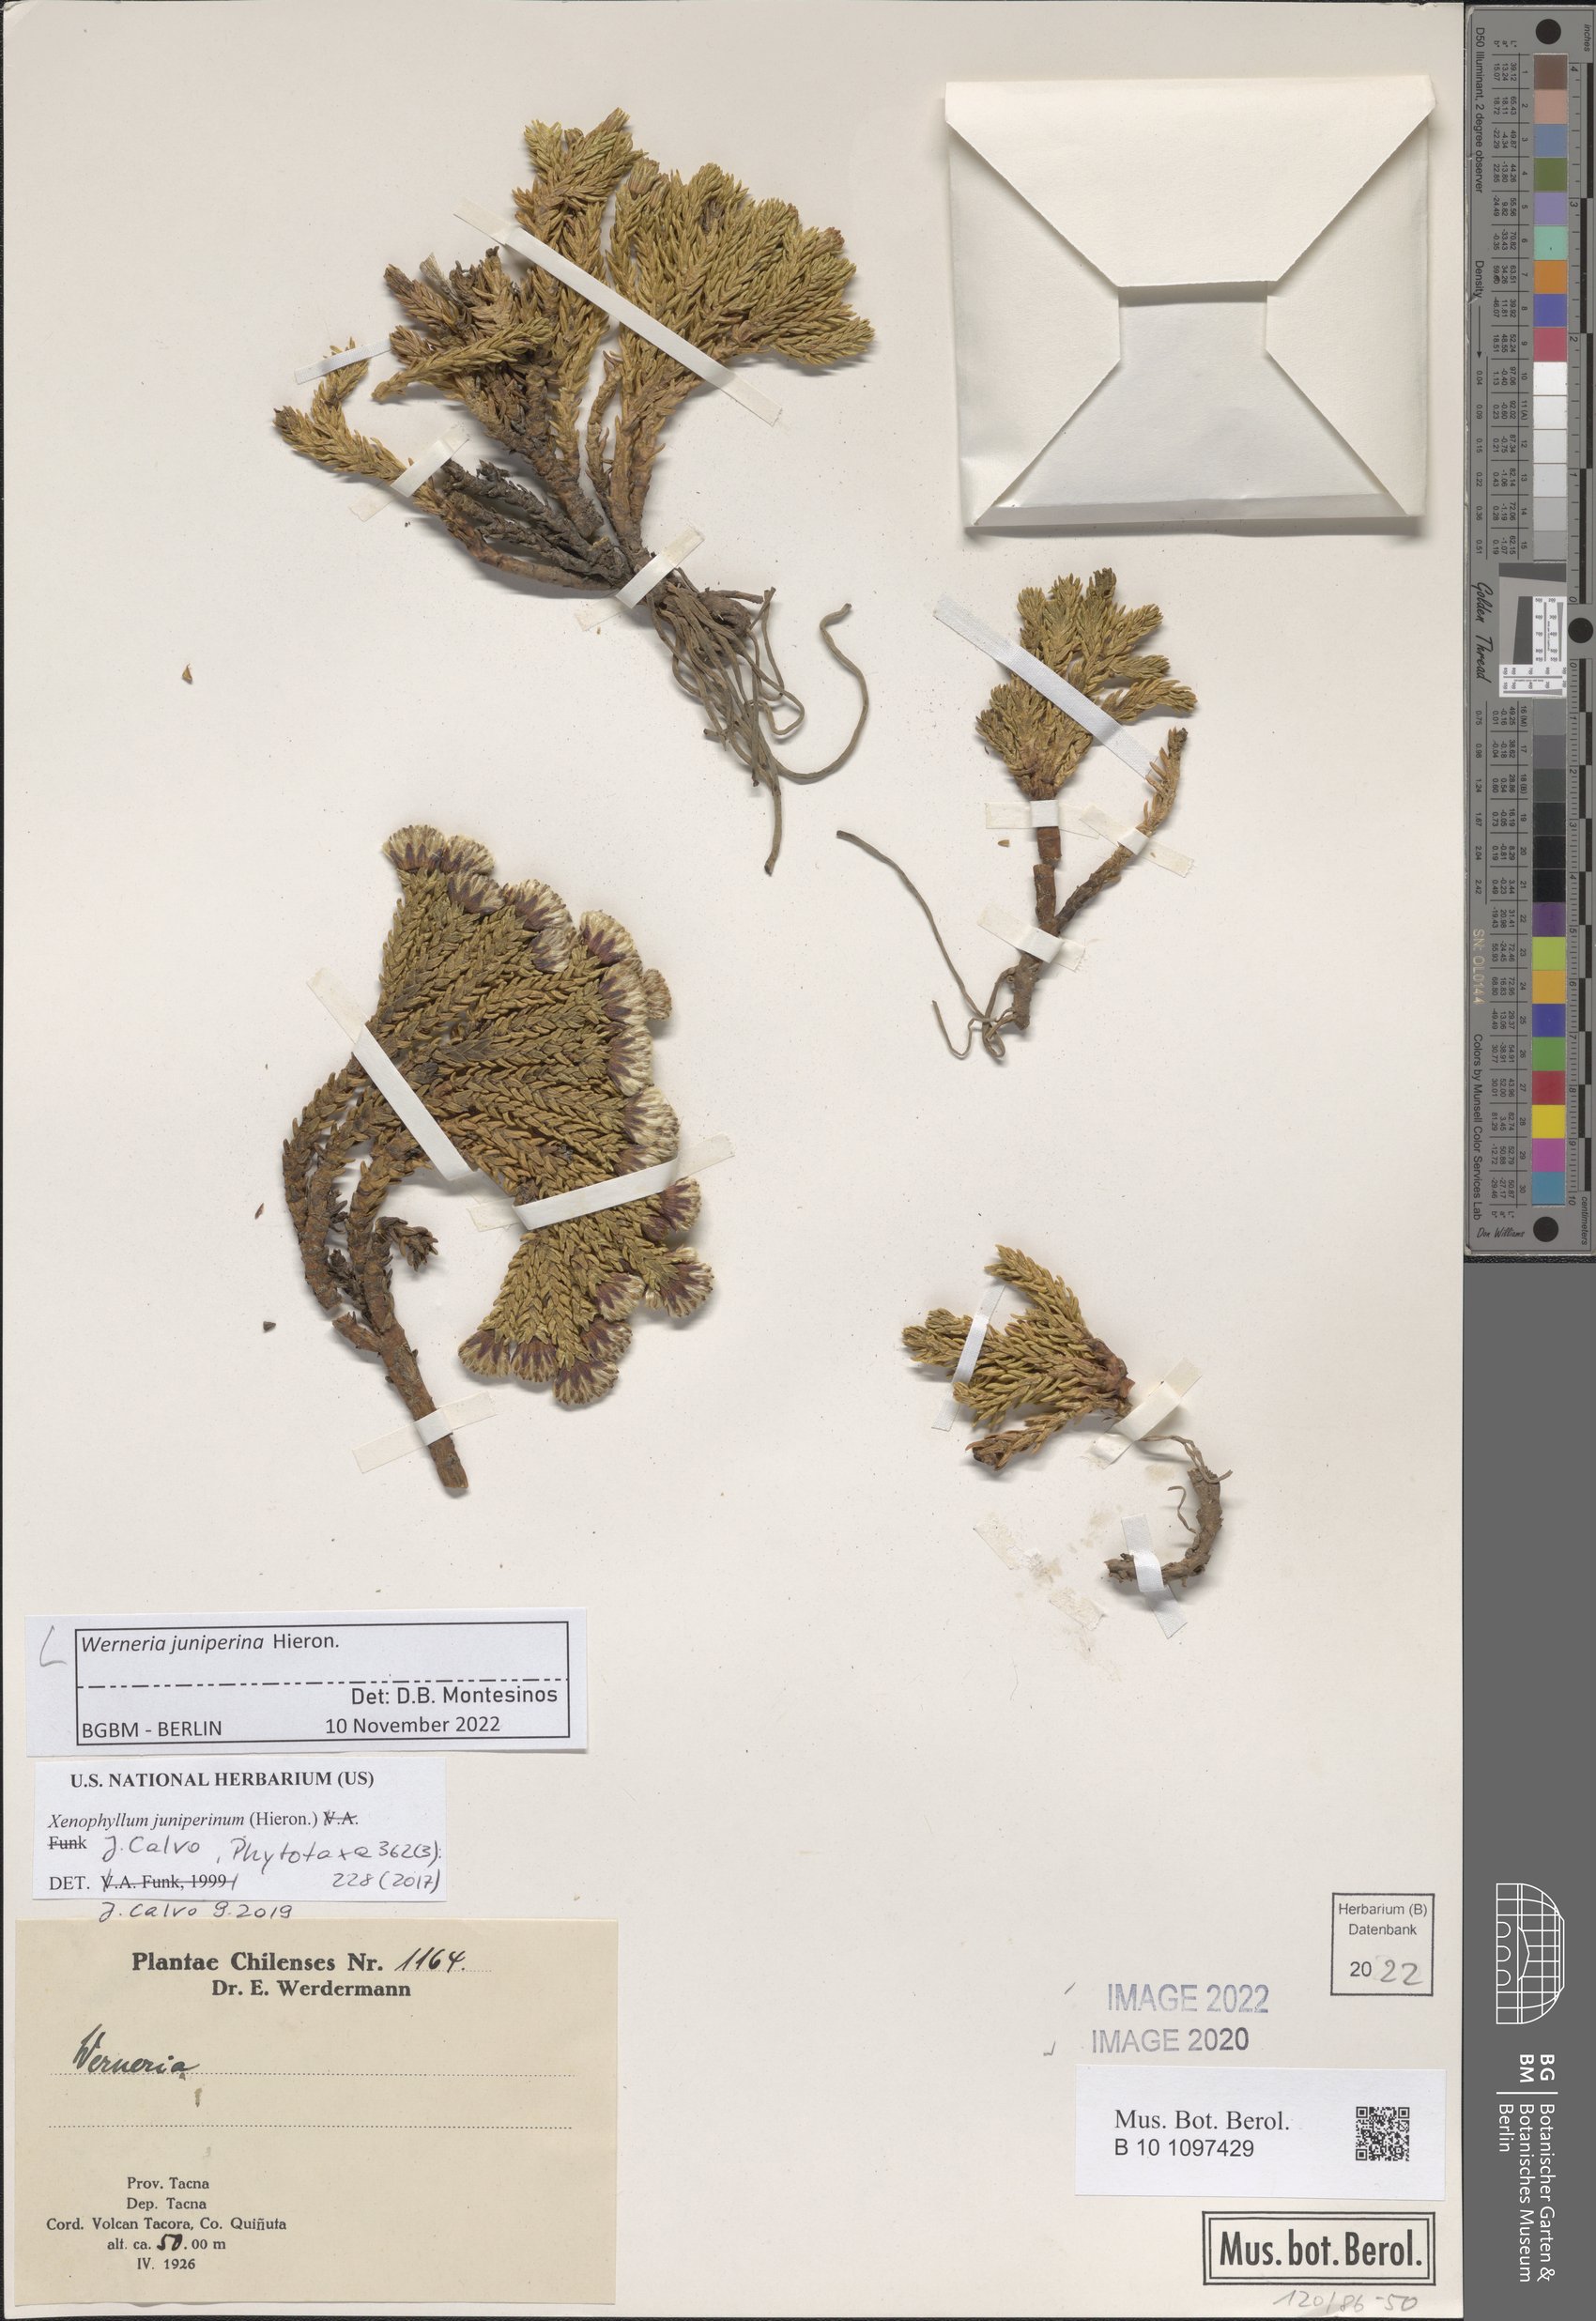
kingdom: Plantae
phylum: Tracheophyta
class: Magnoliopsida
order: Asterales
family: Asteraceae
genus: Werneria
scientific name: Werneria juniperina
